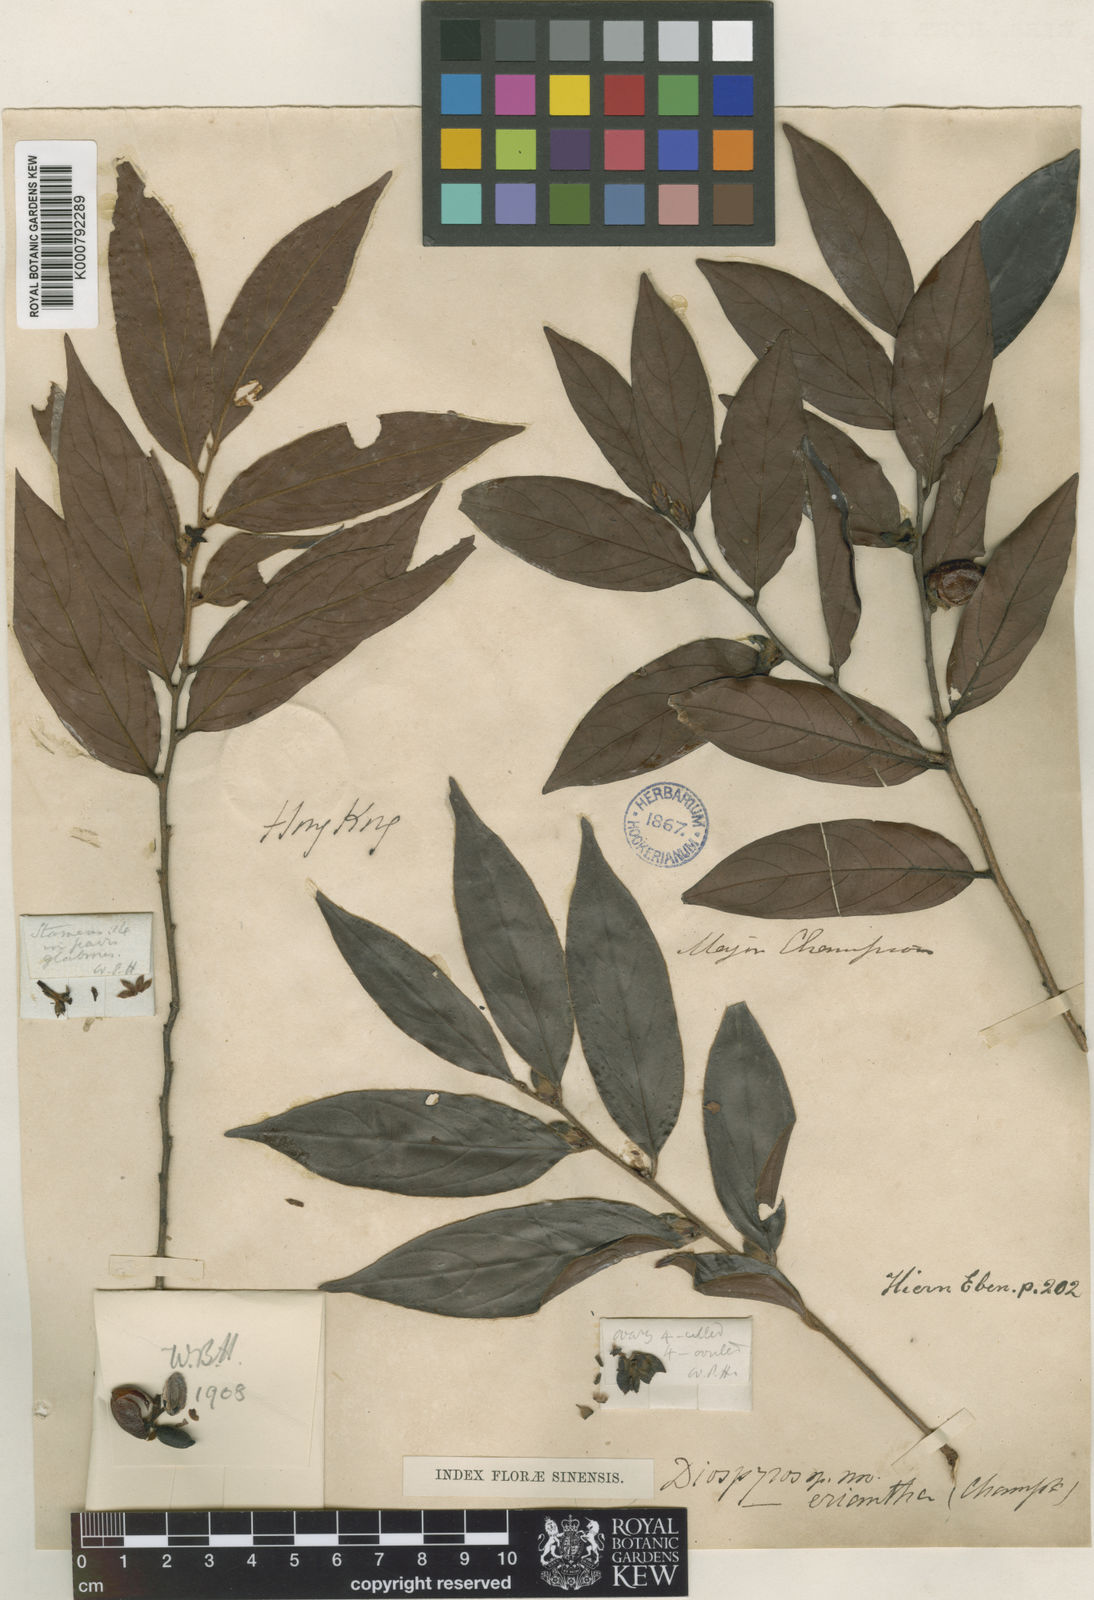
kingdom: Plantae
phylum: Tracheophyta
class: Magnoliopsida
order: Ericales
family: Ebenaceae
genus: Diospyros
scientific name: Diospyros eriantha
